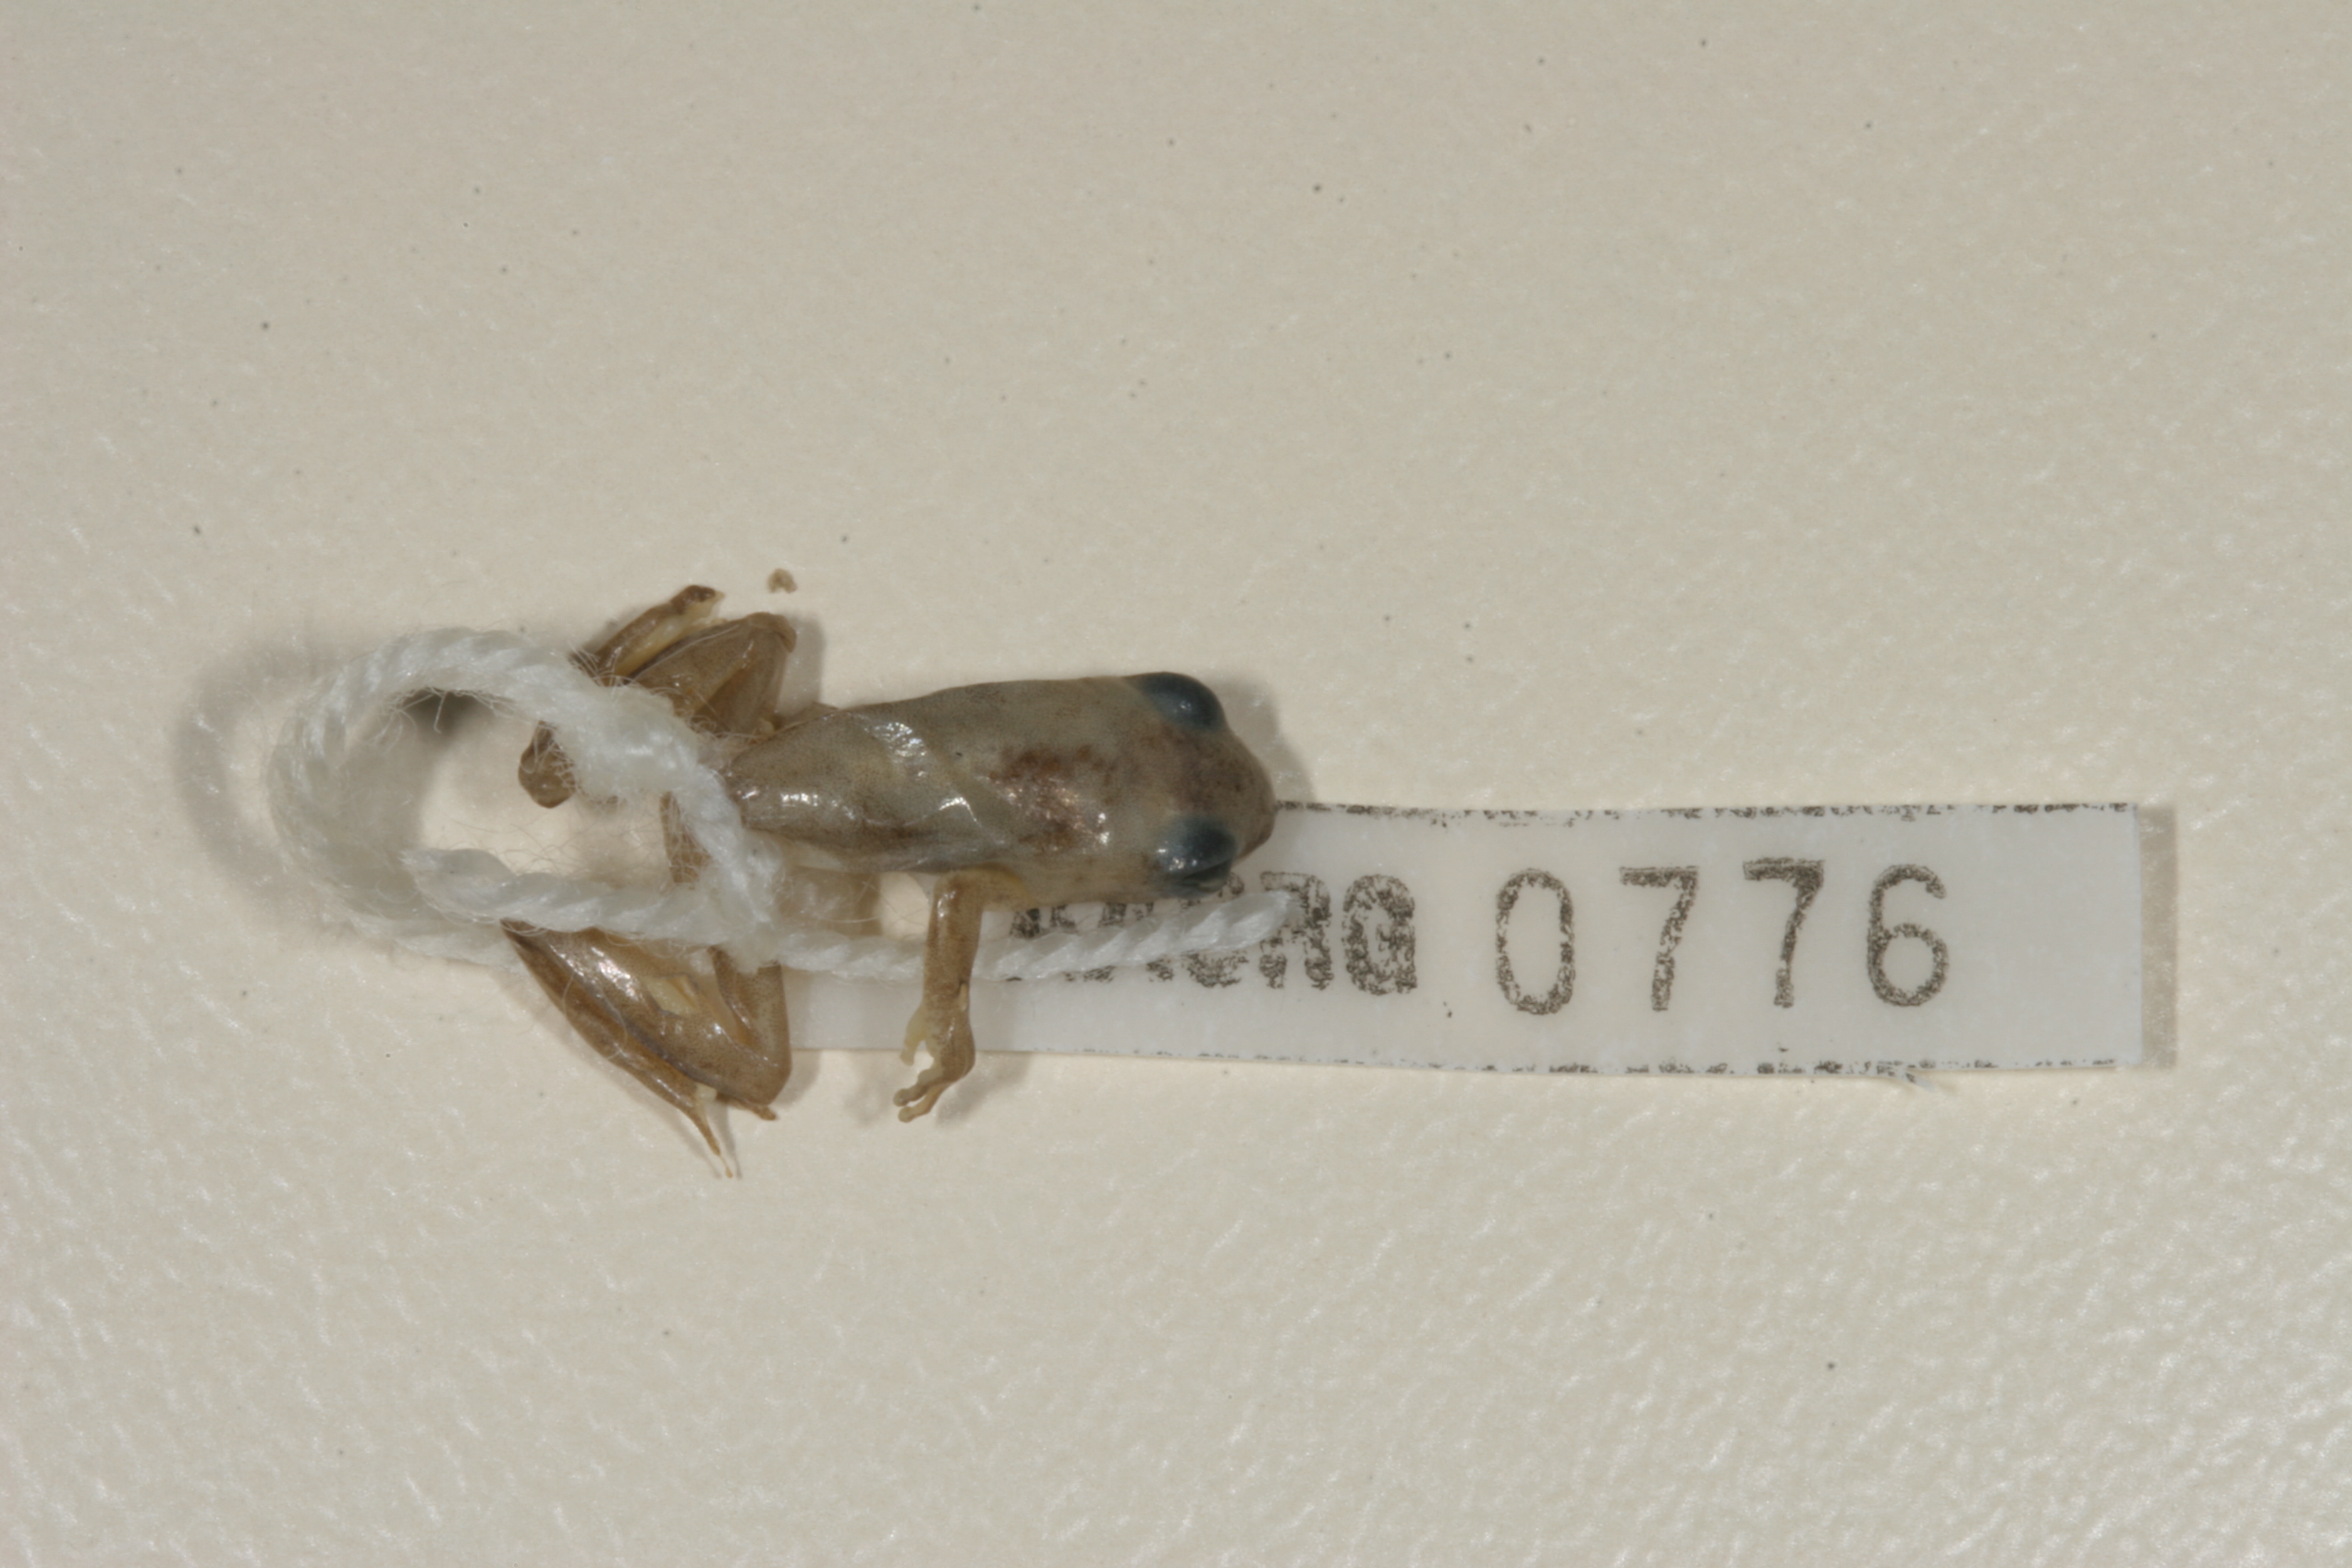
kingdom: Animalia
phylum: Chordata
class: Amphibia
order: Anura
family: Hyperoliidae
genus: Hyperolius
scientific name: Hyperolius marmoratus
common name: Painted reed frog
